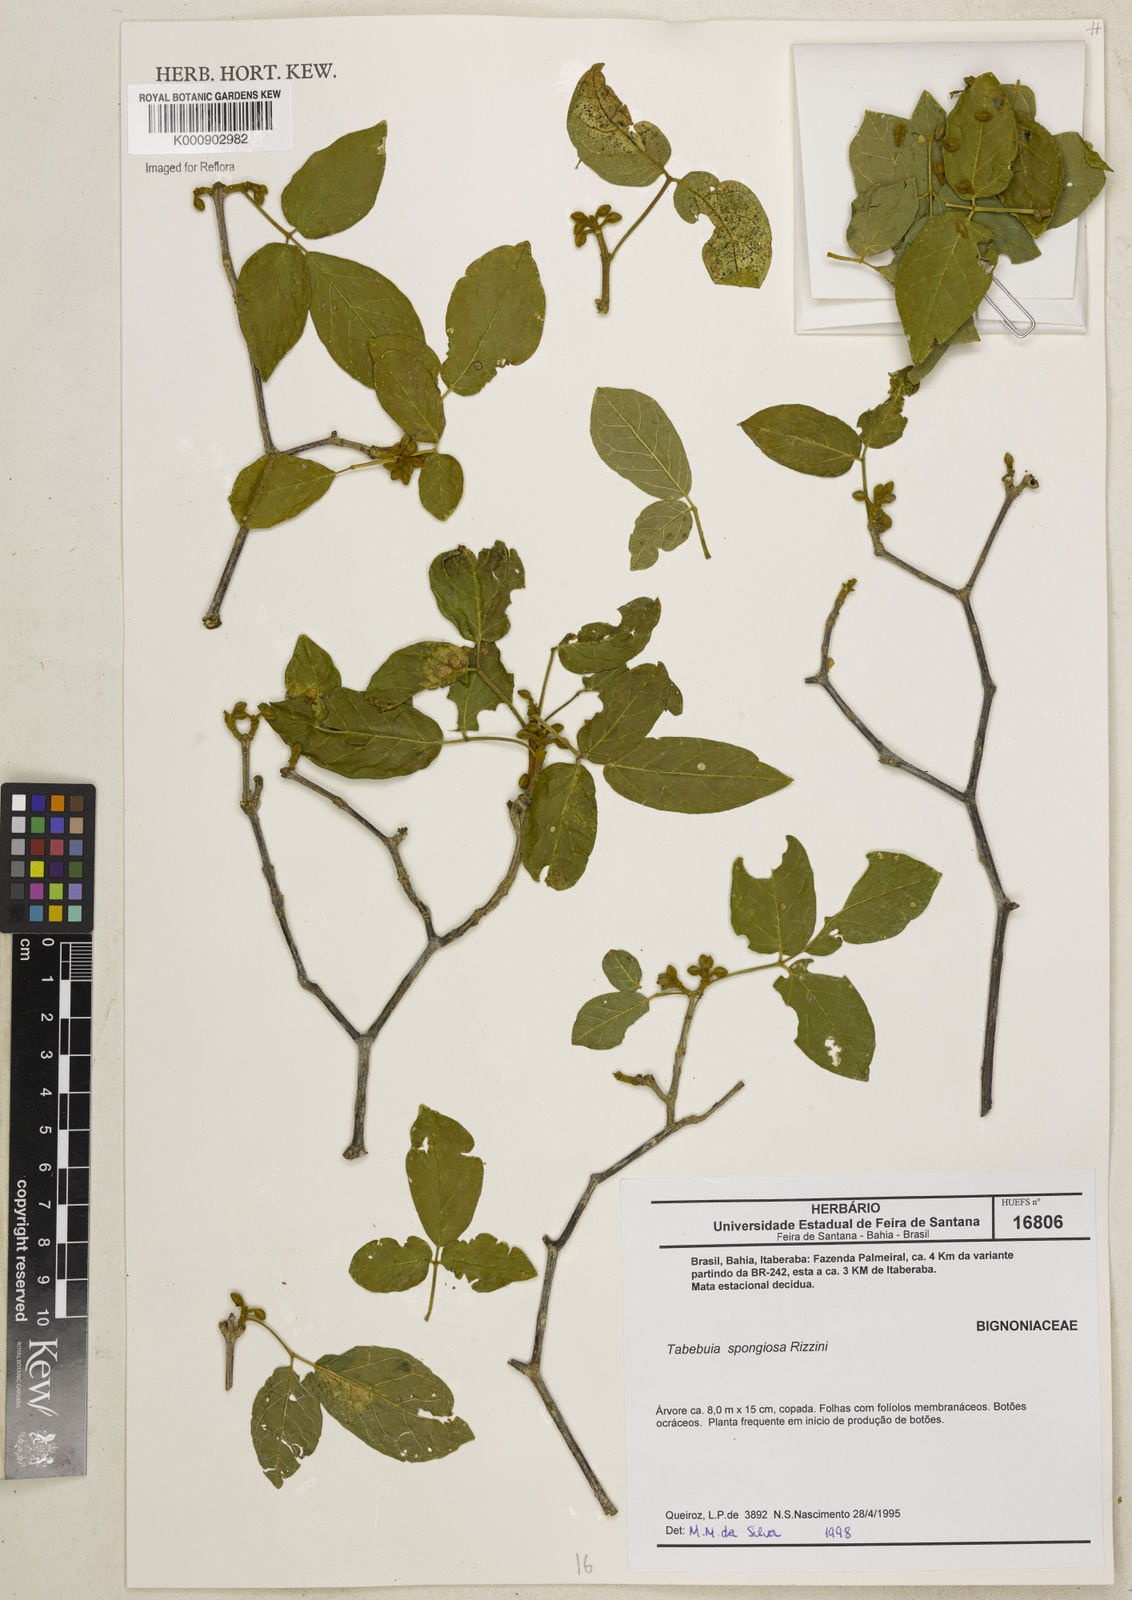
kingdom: Plantae
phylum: Tracheophyta
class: Magnoliopsida
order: Lamiales
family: Bignoniaceae
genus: Handroanthus
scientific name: Handroanthus spongiosus
